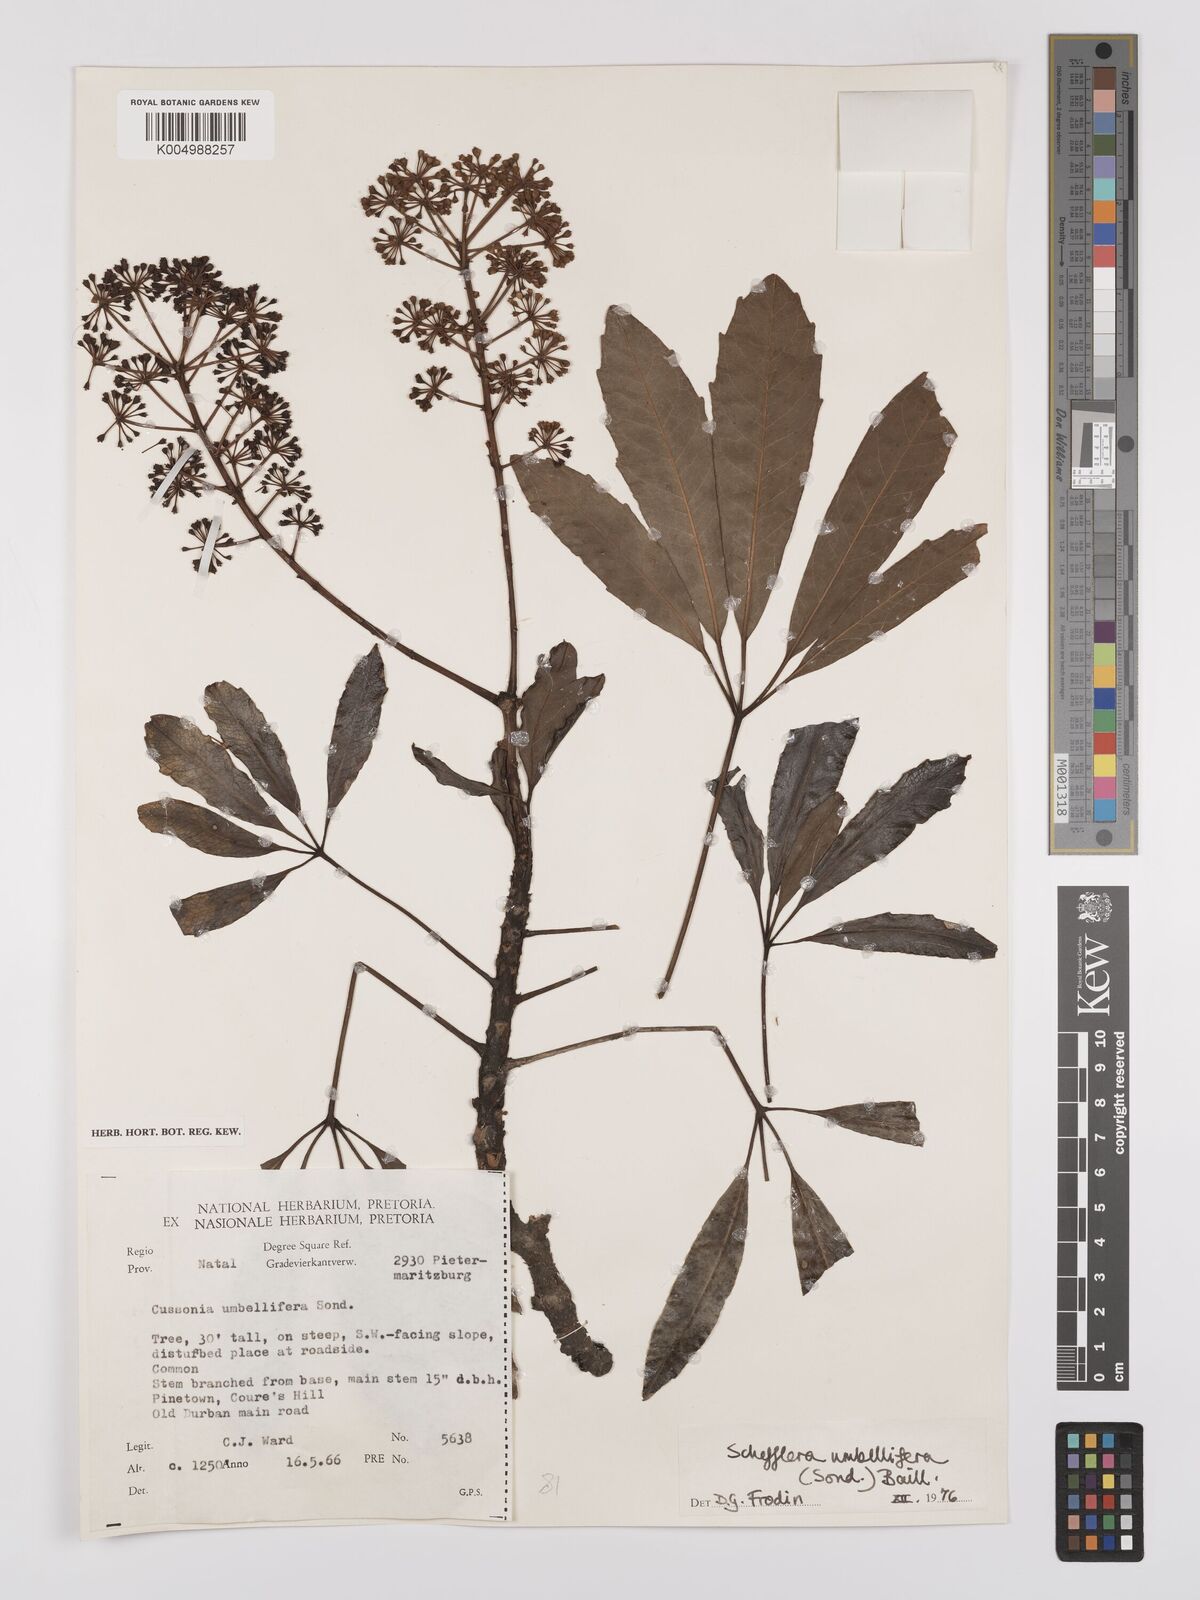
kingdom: Plantae
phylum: Tracheophyta
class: Magnoliopsida
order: Apiales
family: Araliaceae
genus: Neocussonia
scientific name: Neocussonia umbellifera
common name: False cabbage tree
